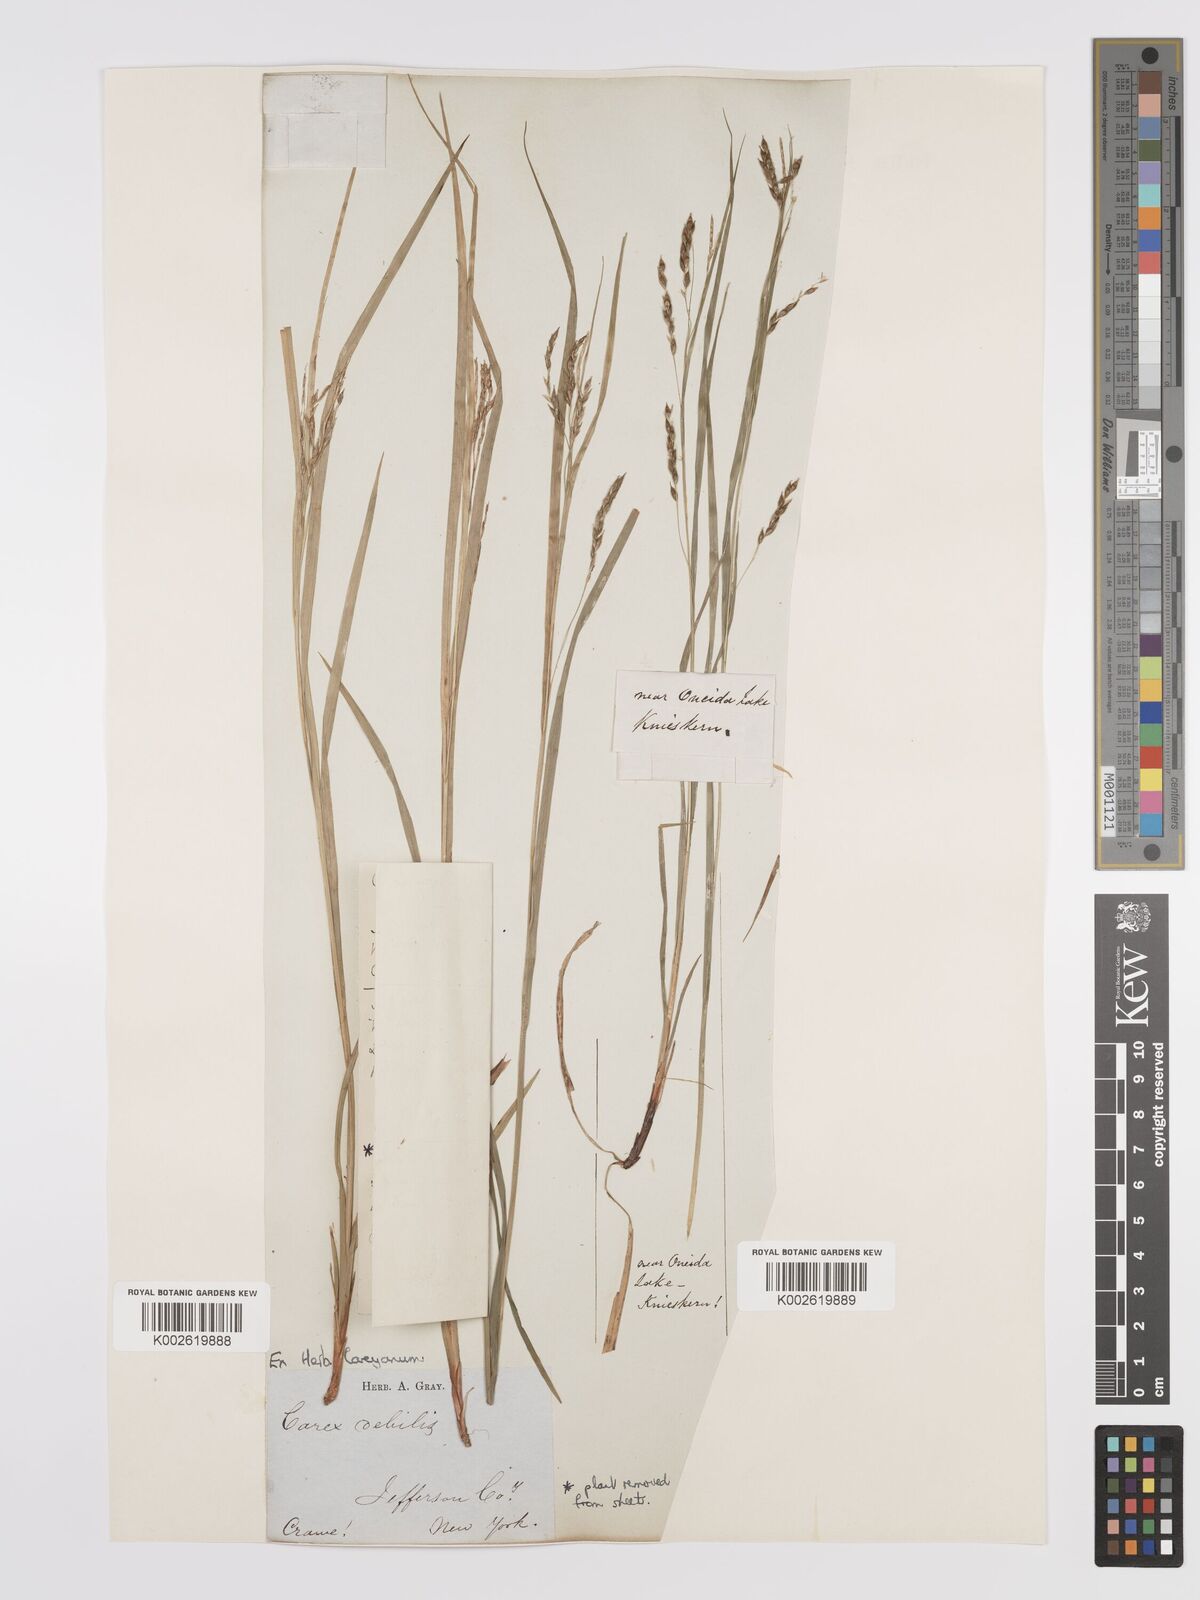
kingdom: Plantae
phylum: Tracheophyta
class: Liliopsida
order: Poales
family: Cyperaceae
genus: Carex
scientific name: Carex arctata
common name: Black sedge
